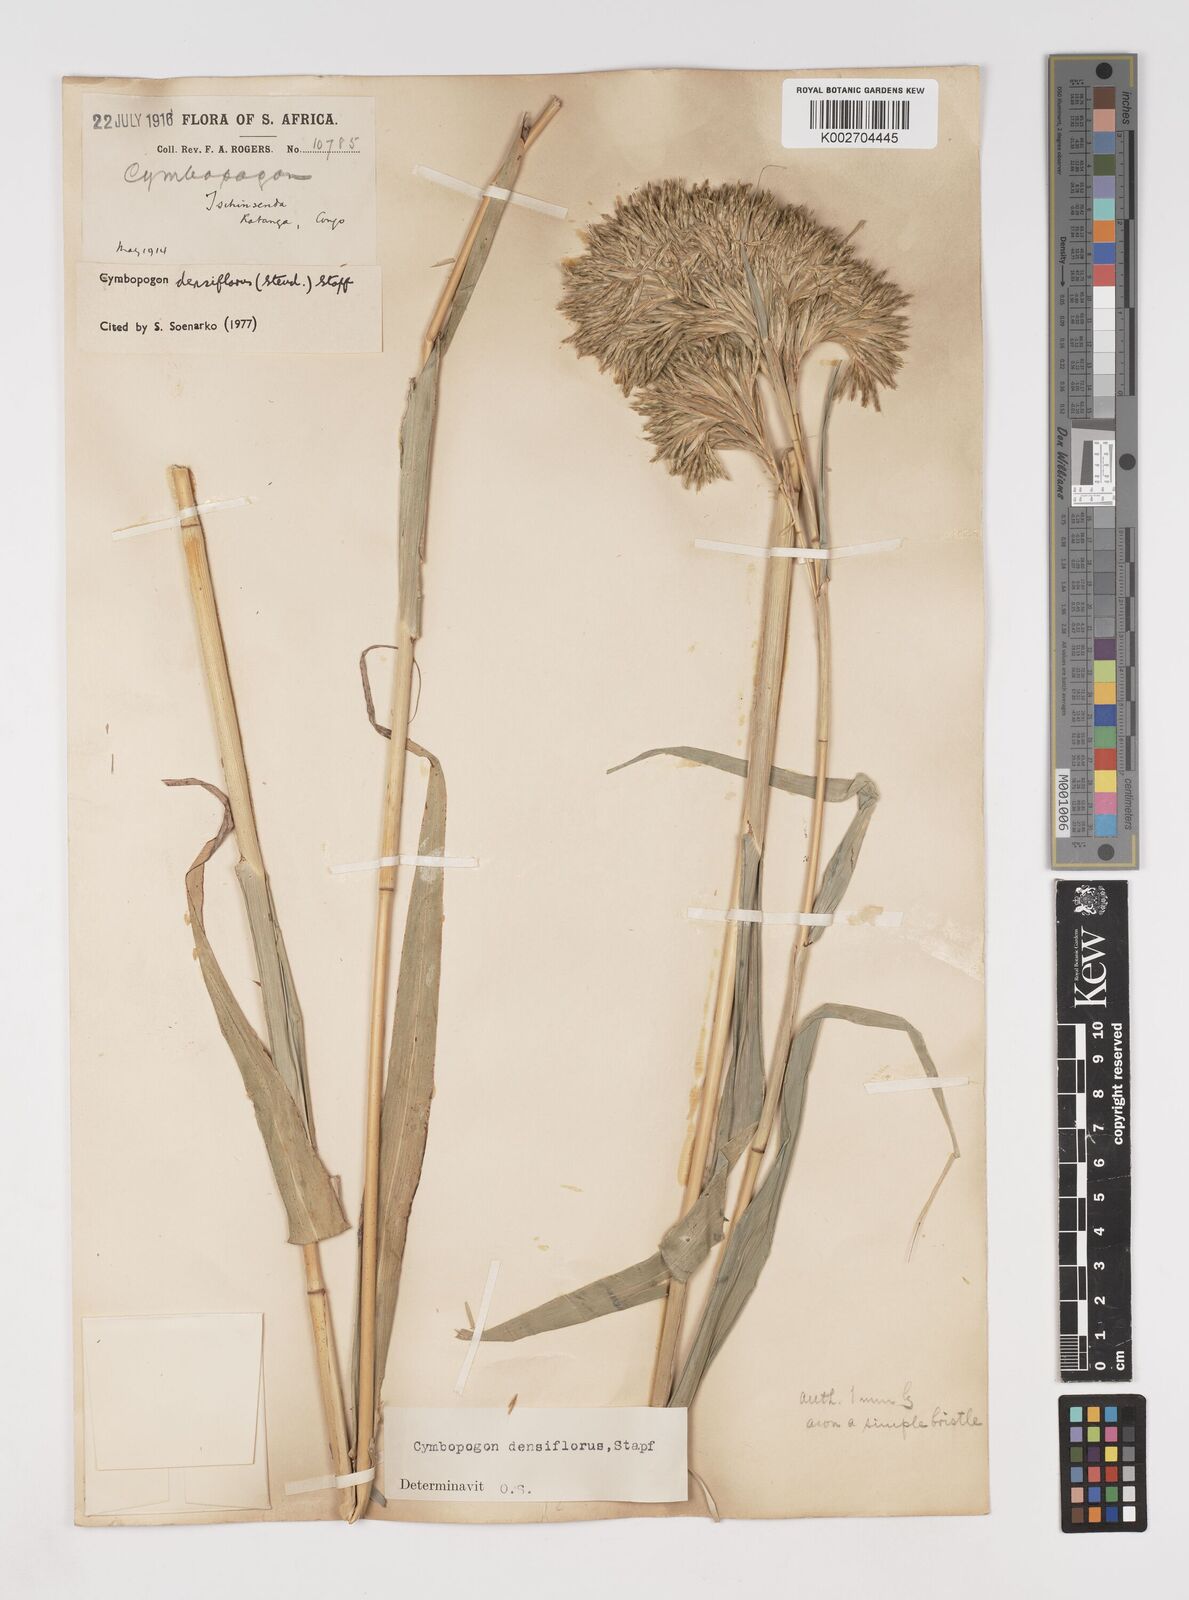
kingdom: Plantae
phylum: Tracheophyta
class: Liliopsida
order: Poales
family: Poaceae
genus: Cymbopogon
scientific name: Cymbopogon densiflorus
